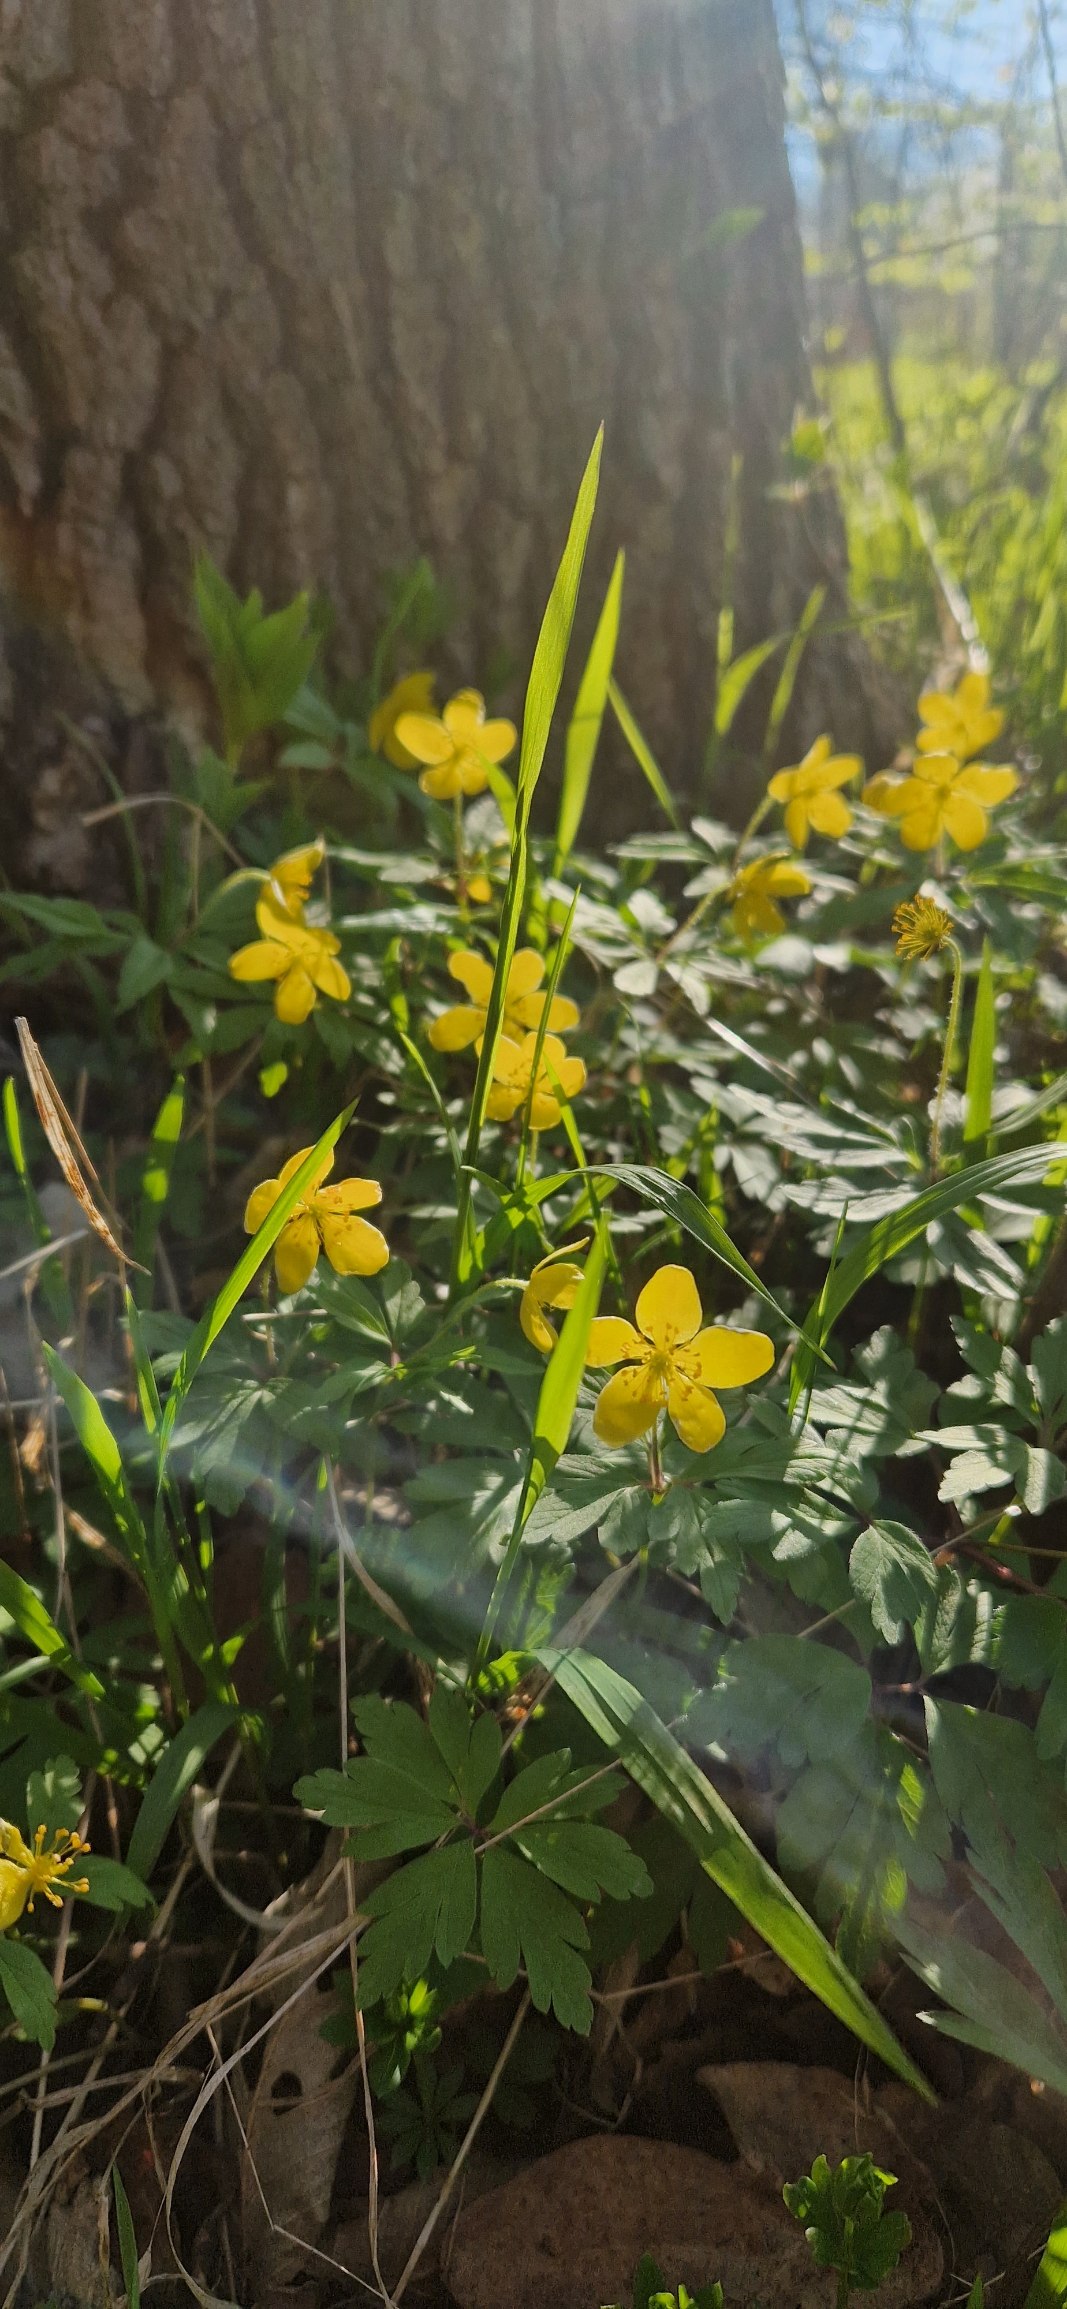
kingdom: Plantae
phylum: Tracheophyta
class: Magnoliopsida
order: Ranunculales
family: Ranunculaceae
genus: Anemone
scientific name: Anemone ranunculoides
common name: Gul anemone
